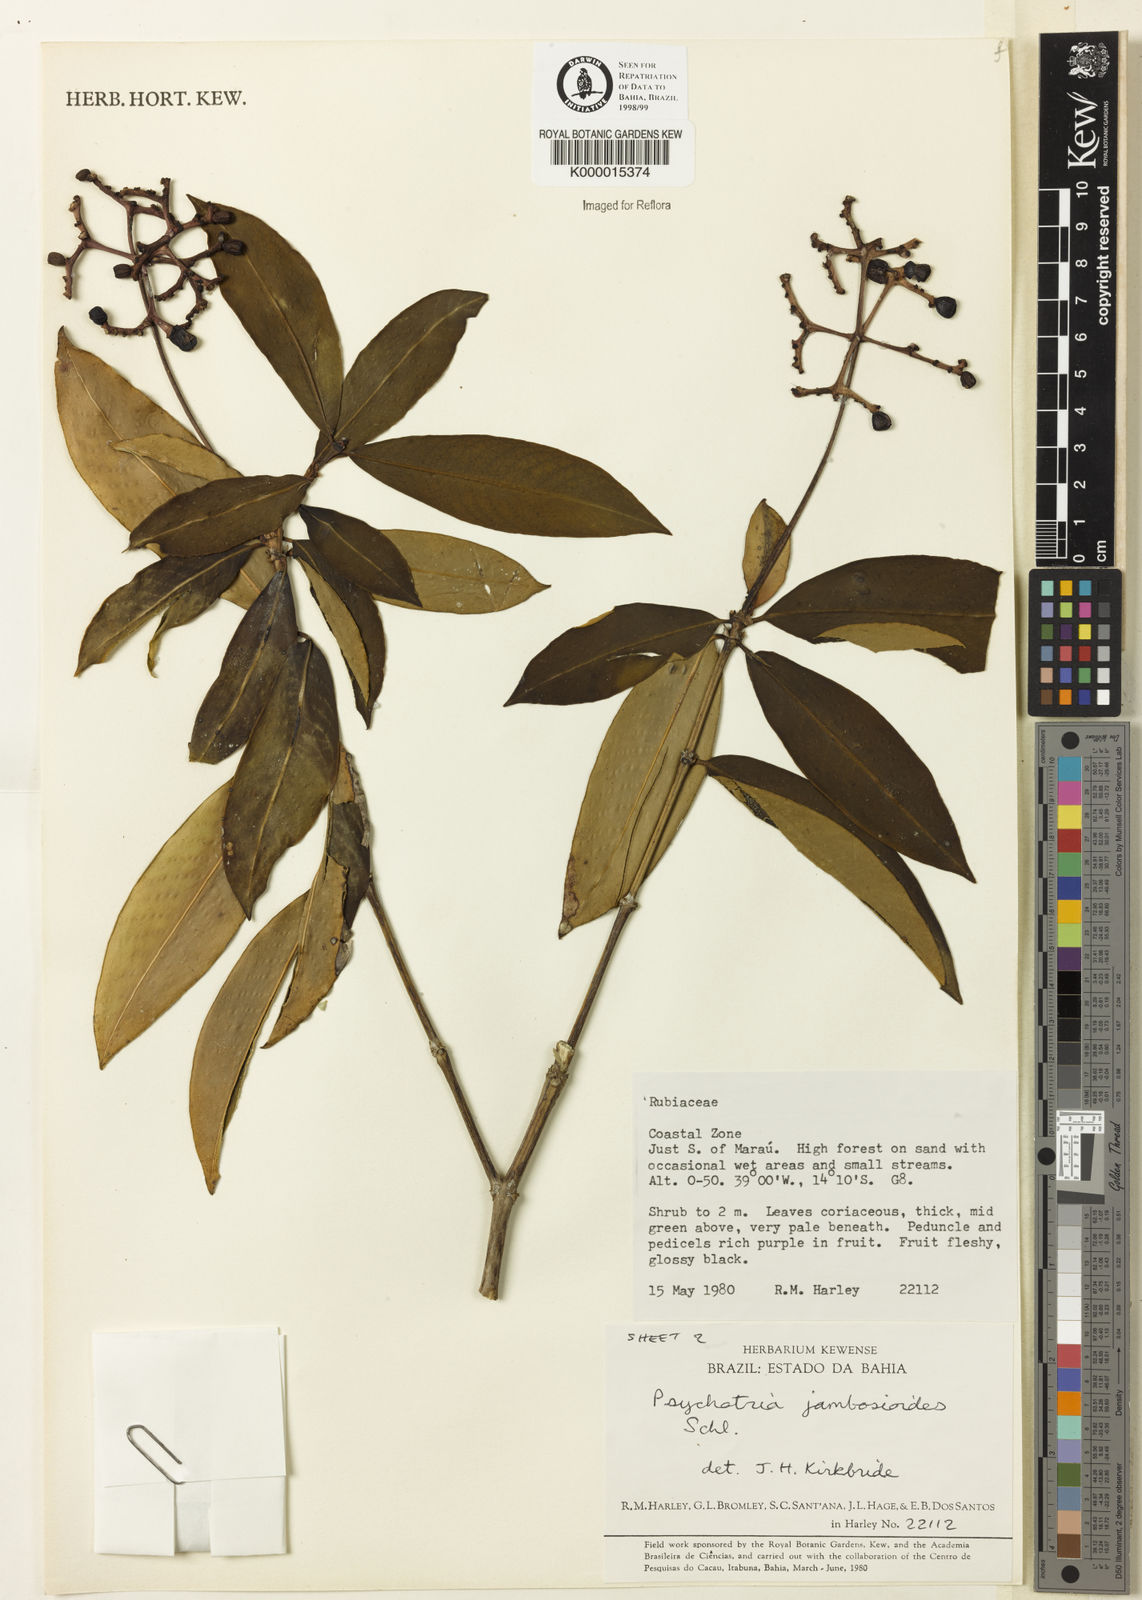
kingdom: Plantae
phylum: Tracheophyta
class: Magnoliopsida
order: Gentianales
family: Rubiaceae
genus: Palicourea
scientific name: Palicourea jambosioides
